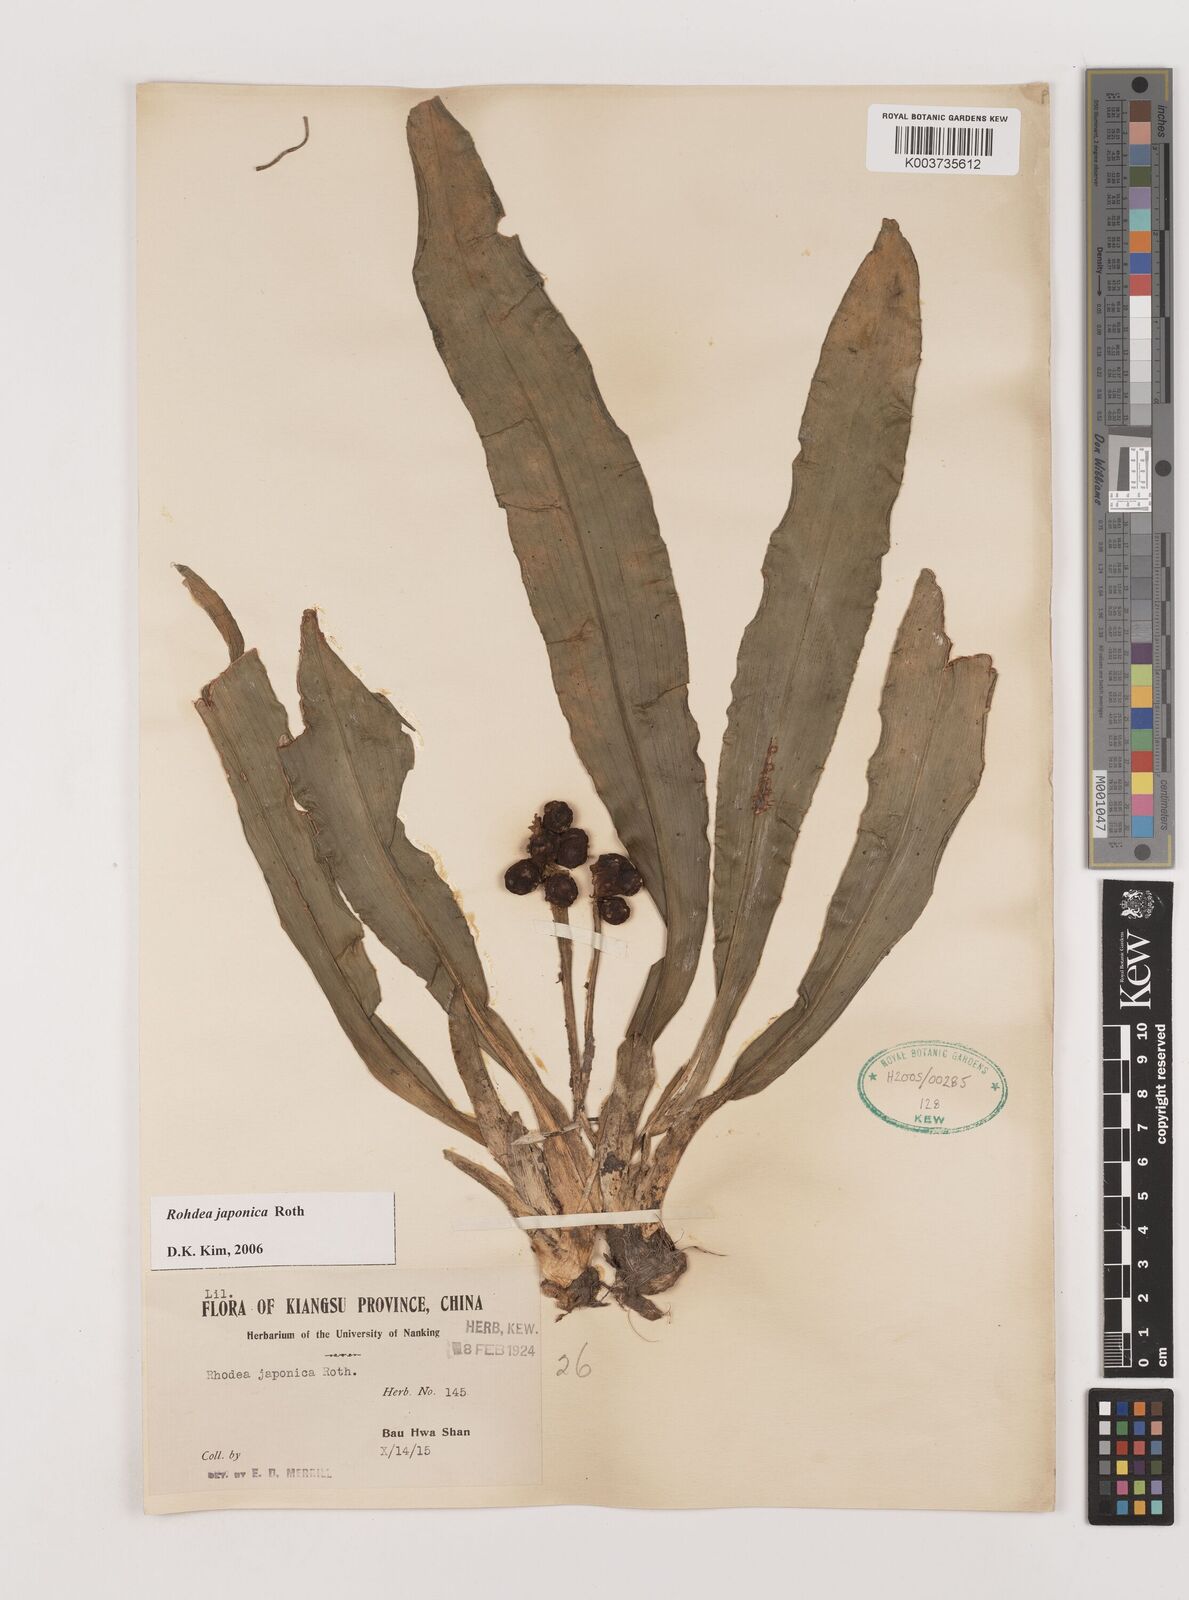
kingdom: Plantae
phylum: Tracheophyta
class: Liliopsida
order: Asparagales
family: Asparagaceae
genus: Rohdea
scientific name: Rohdea japonica
